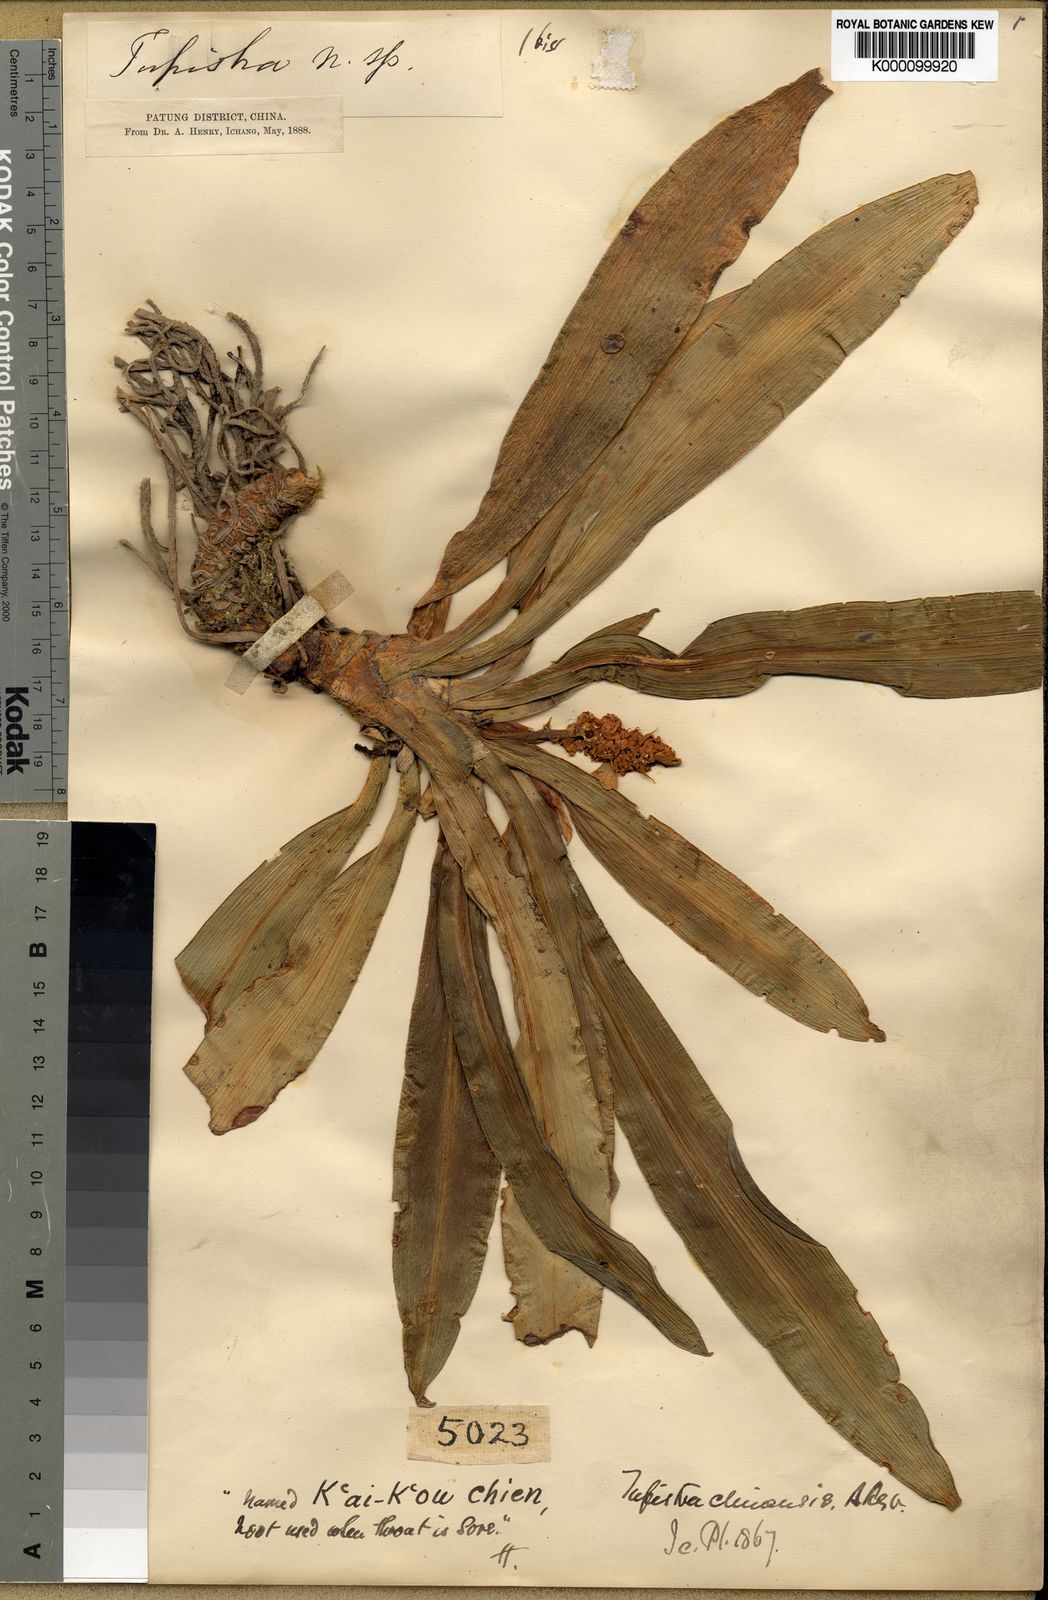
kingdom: Plantae
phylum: Tracheophyta
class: Liliopsida
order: Asparagales
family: Asparagaceae
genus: Rohdea
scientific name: Rohdea fargesii
